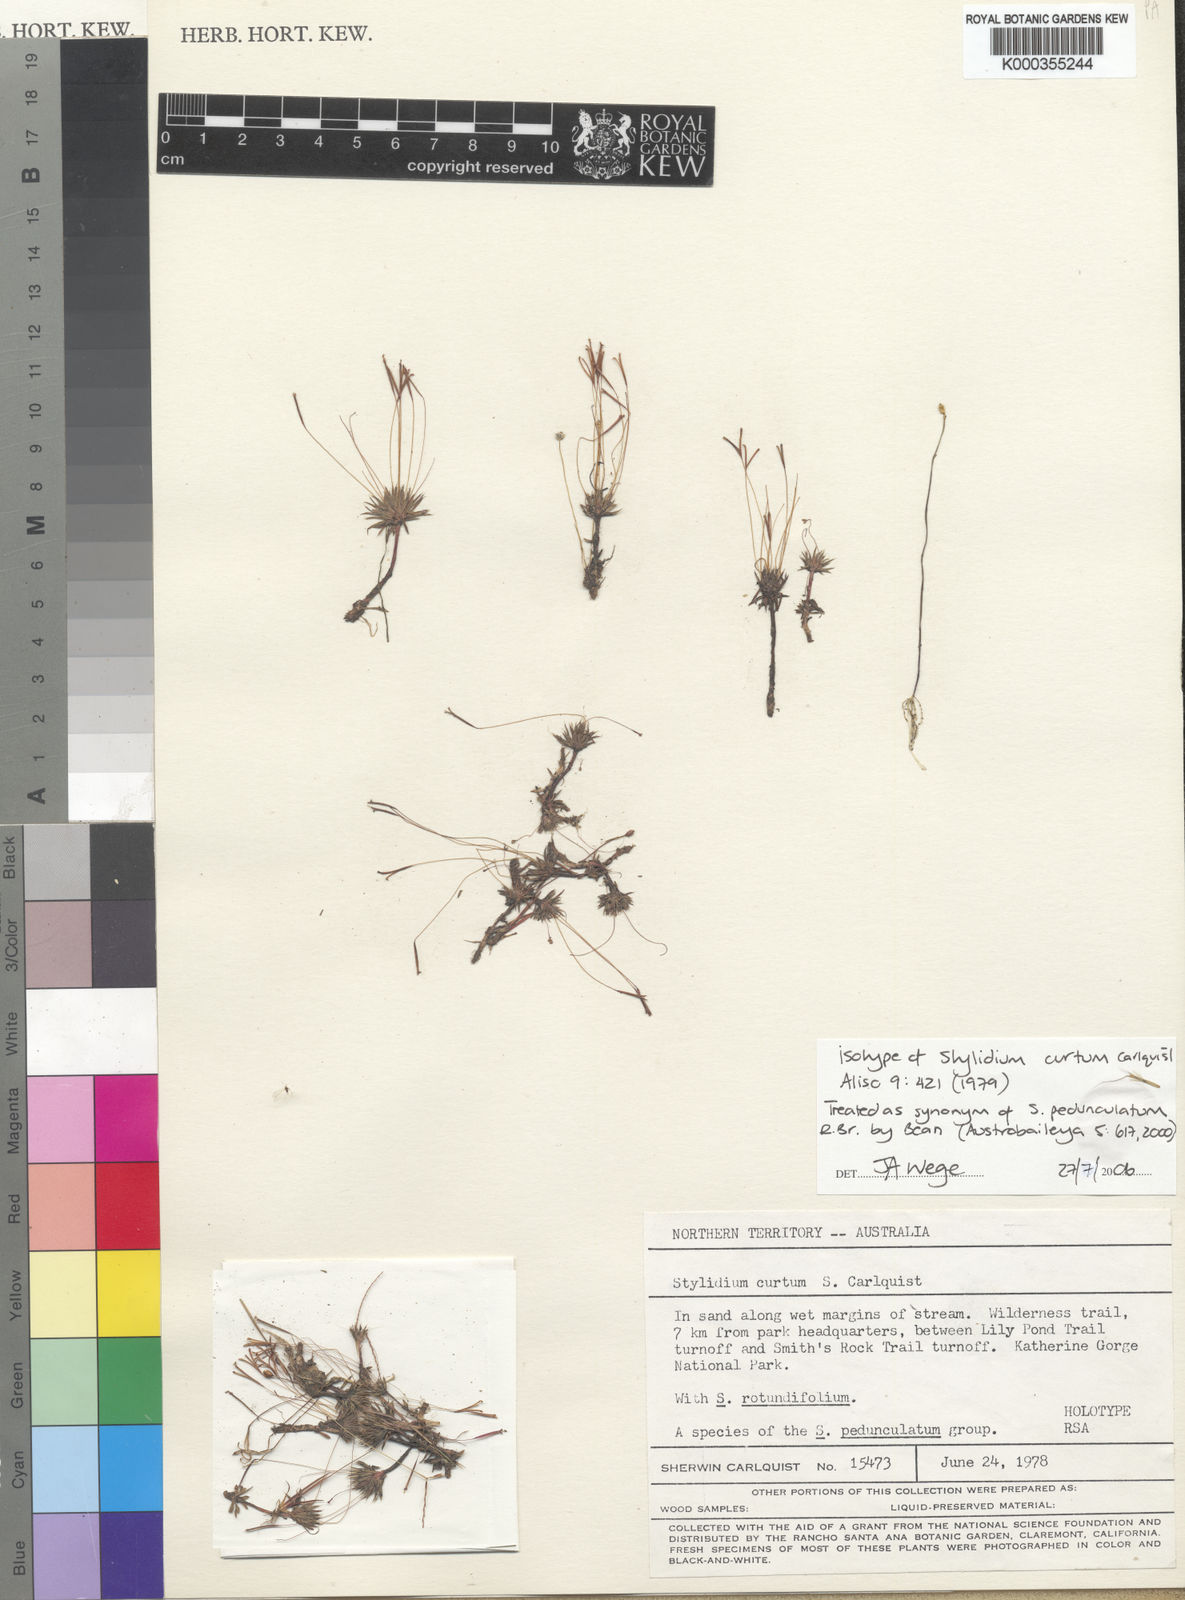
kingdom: Plantae
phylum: Tracheophyta
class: Magnoliopsida
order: Asterales
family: Stylidiaceae
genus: Stylidium
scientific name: Stylidium pedunculatum
